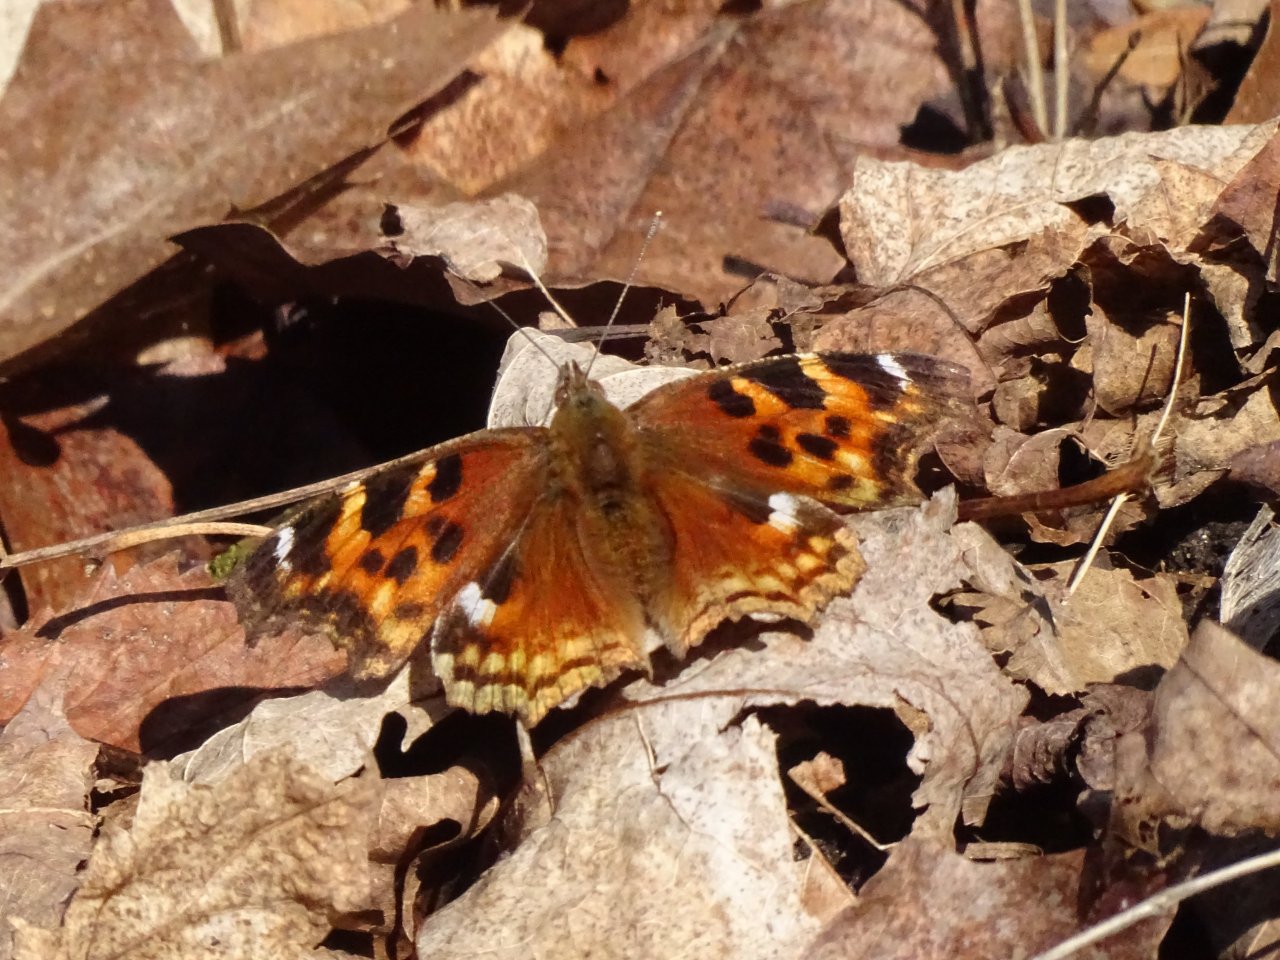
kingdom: Animalia
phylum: Arthropoda
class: Insecta
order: Lepidoptera
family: Nymphalidae
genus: Polygonia
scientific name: Polygonia vaualbum
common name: Compton Tortoiseshell
